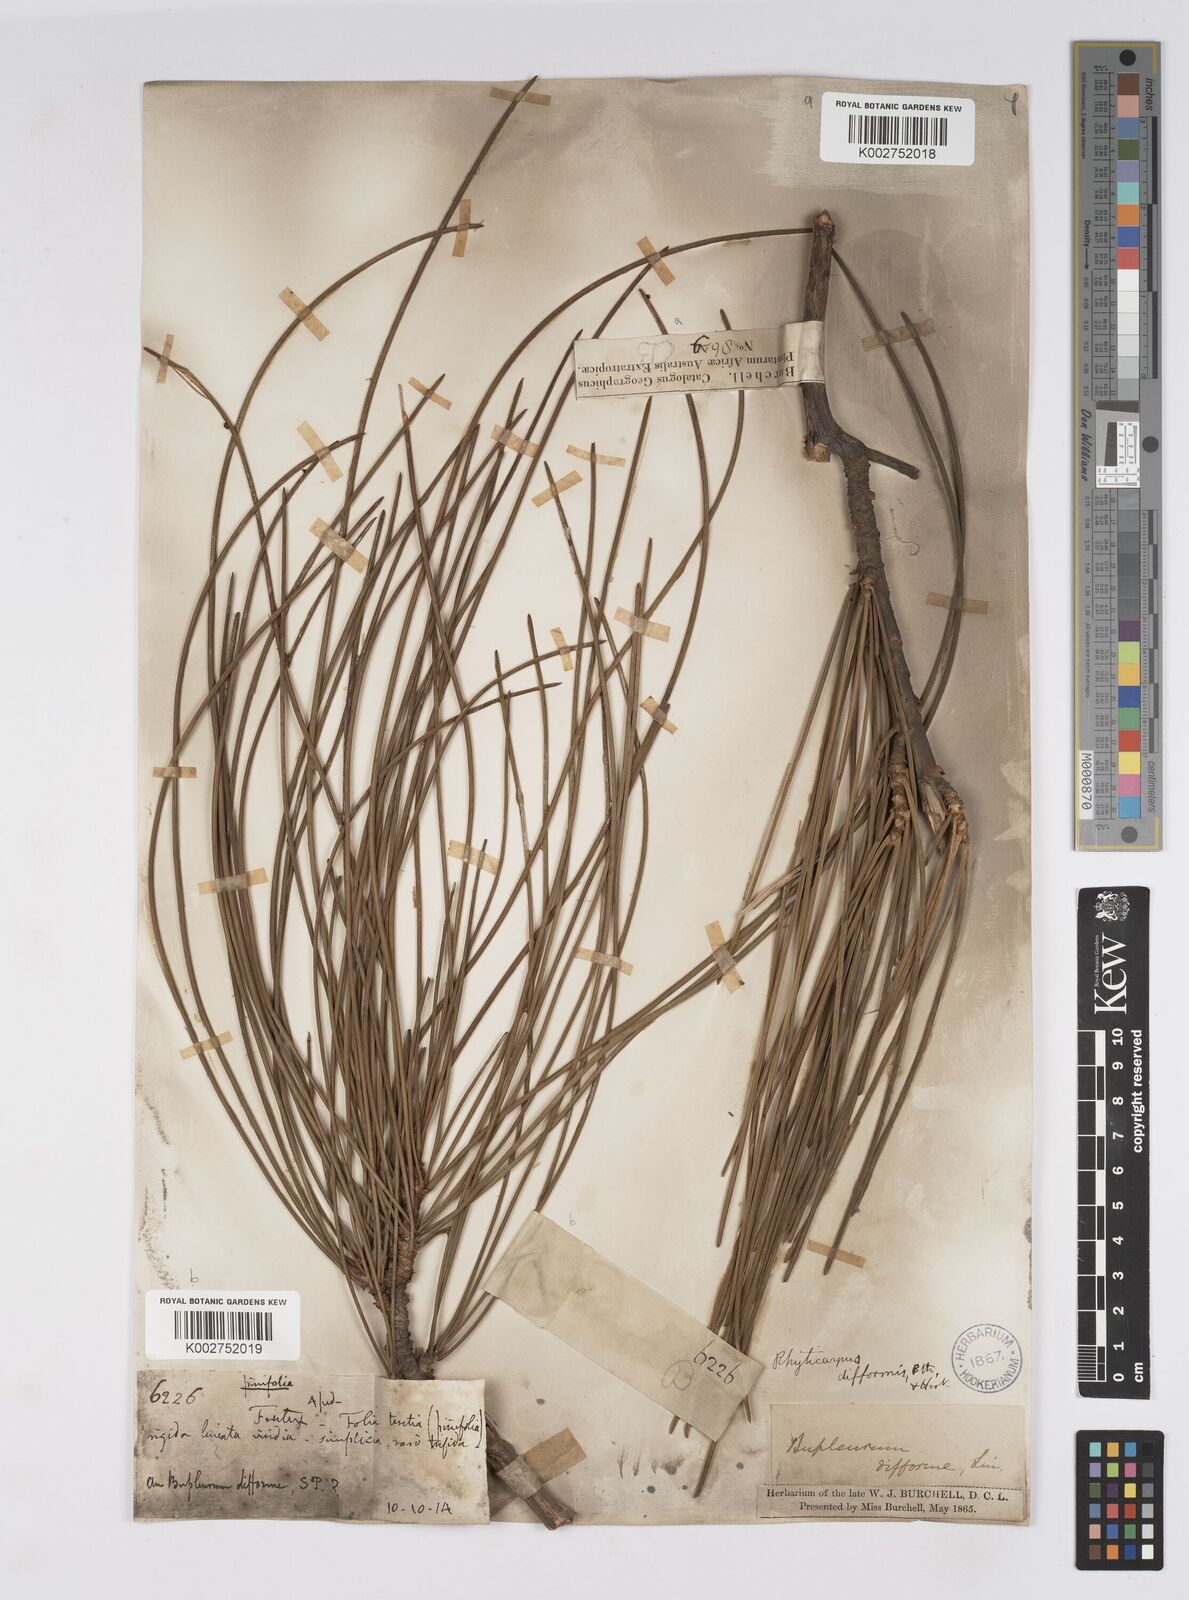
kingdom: Plantae
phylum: Tracheophyta
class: Magnoliopsida
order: Apiales
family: Apiaceae
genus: Anginon
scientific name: Anginon difforme
